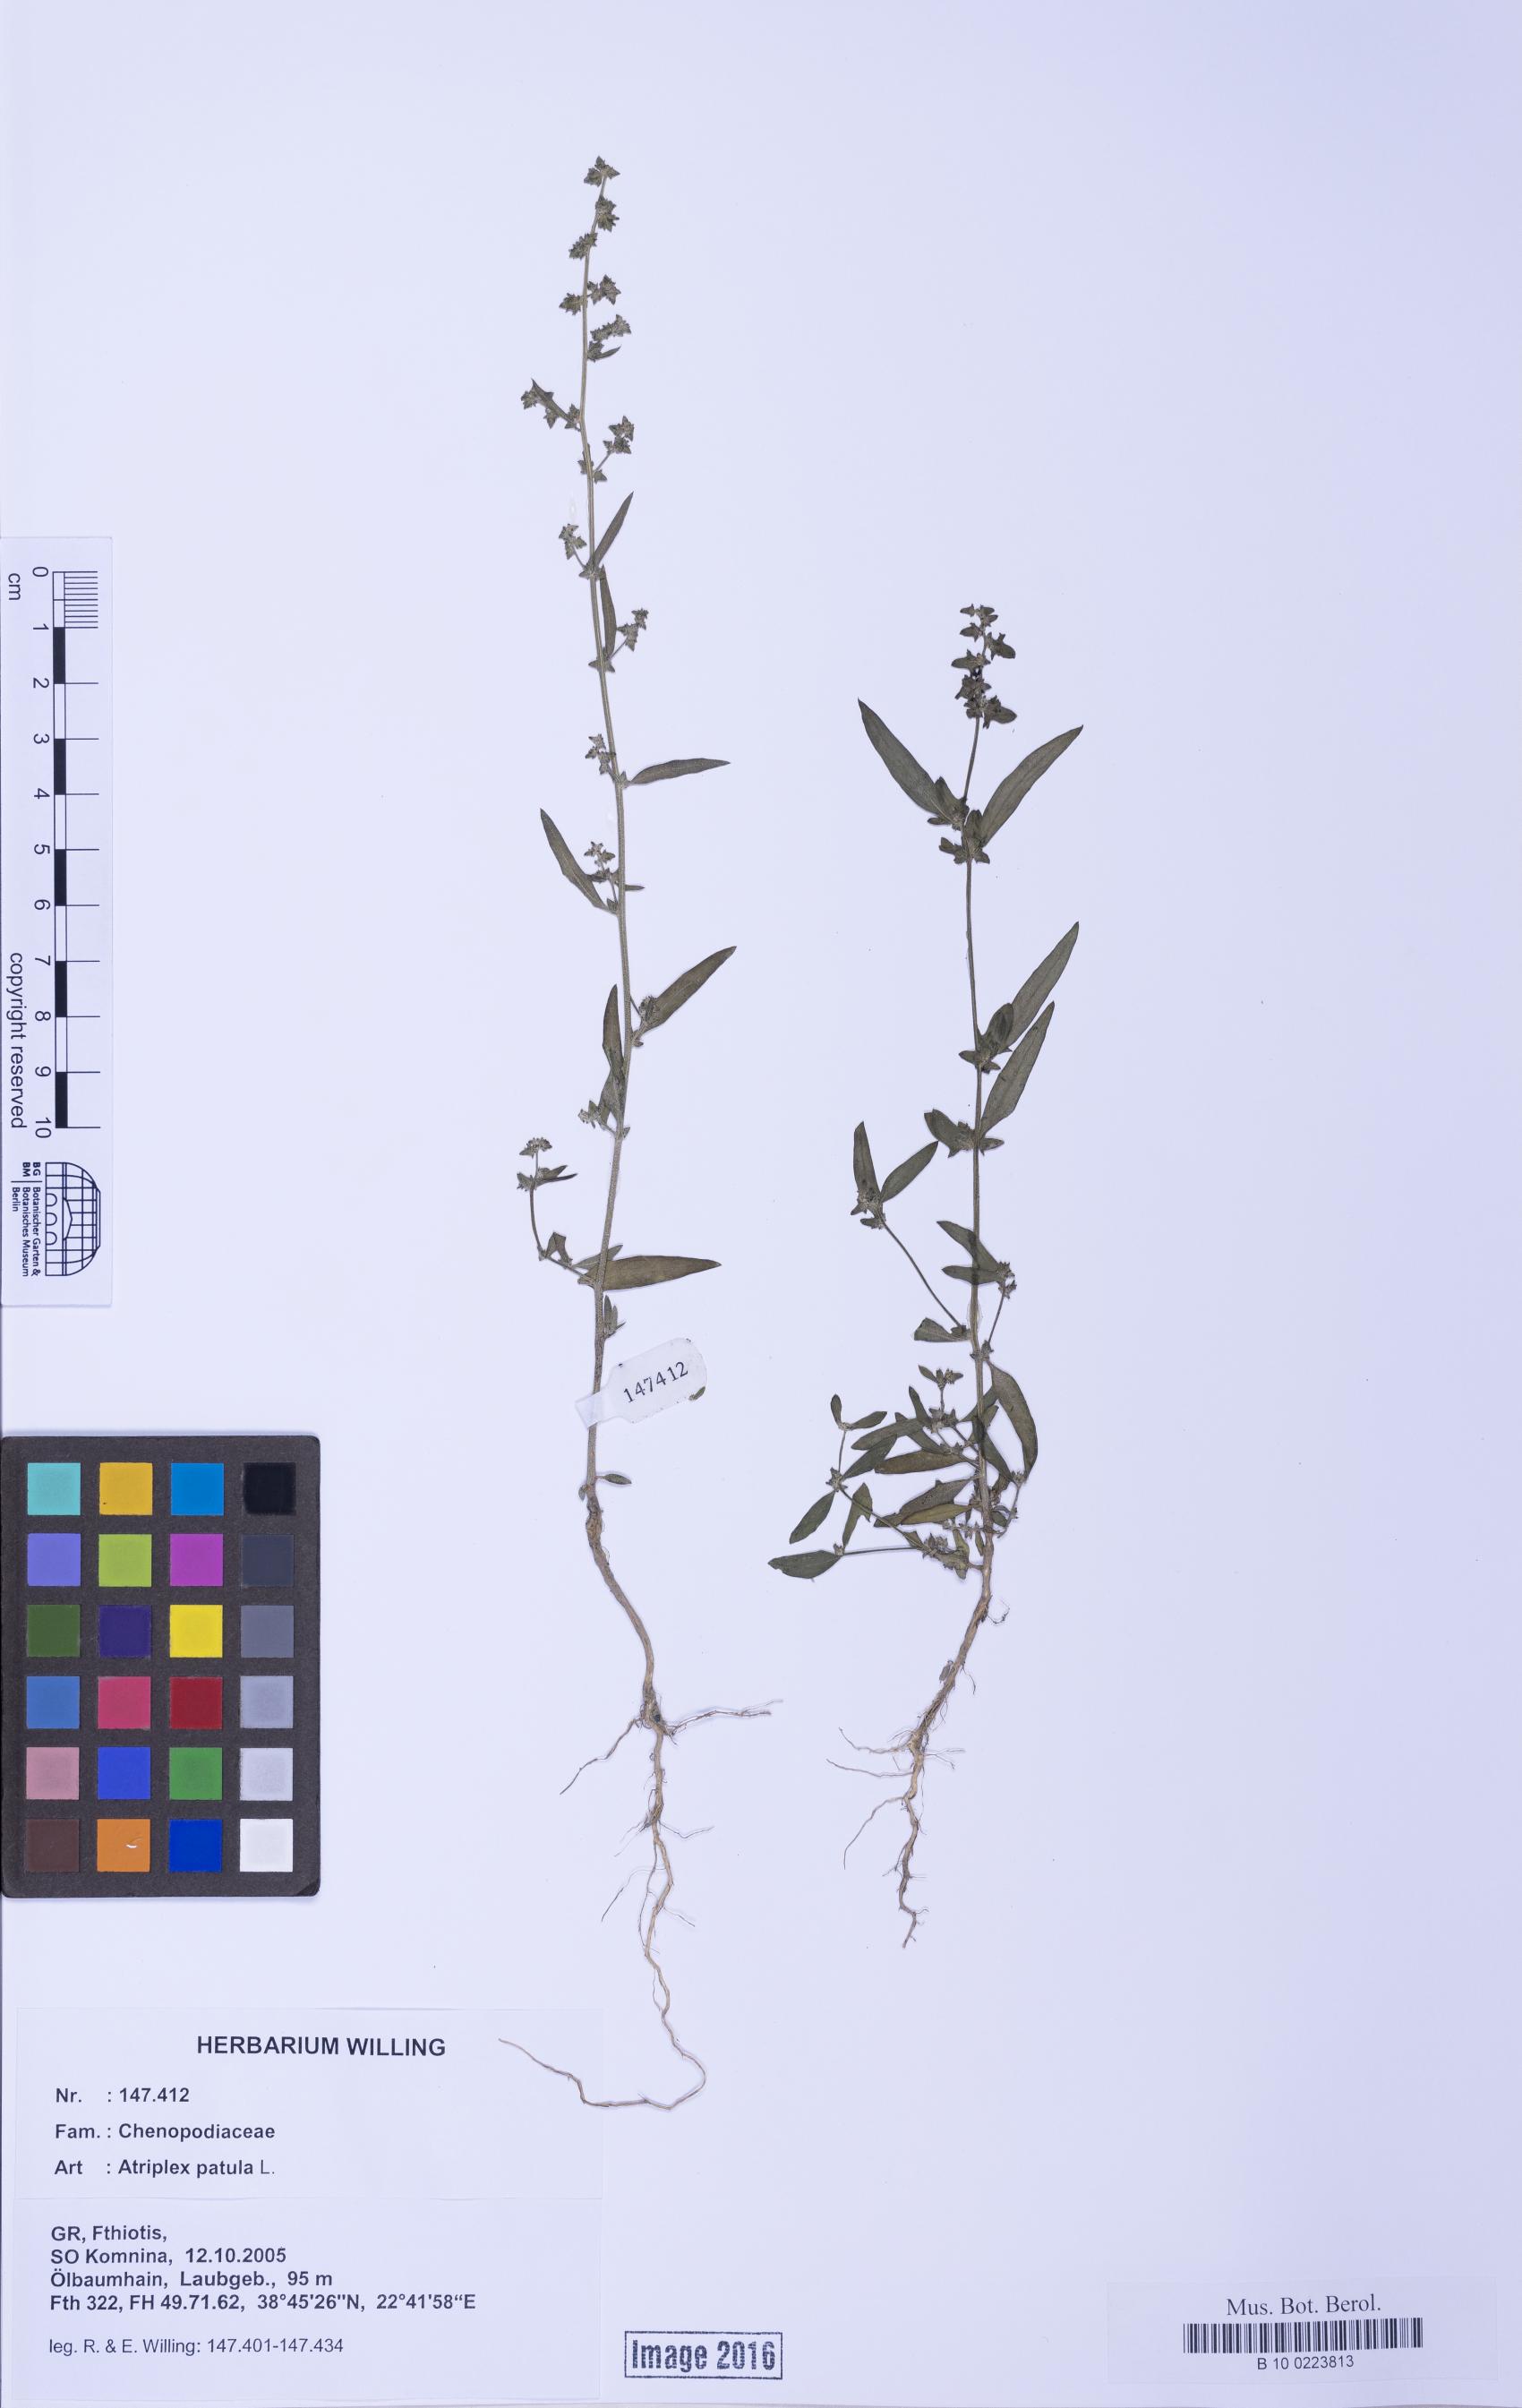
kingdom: Plantae
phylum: Tracheophyta
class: Magnoliopsida
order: Caryophyllales
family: Amaranthaceae
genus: Atriplex
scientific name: Atriplex patula
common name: Common orache
